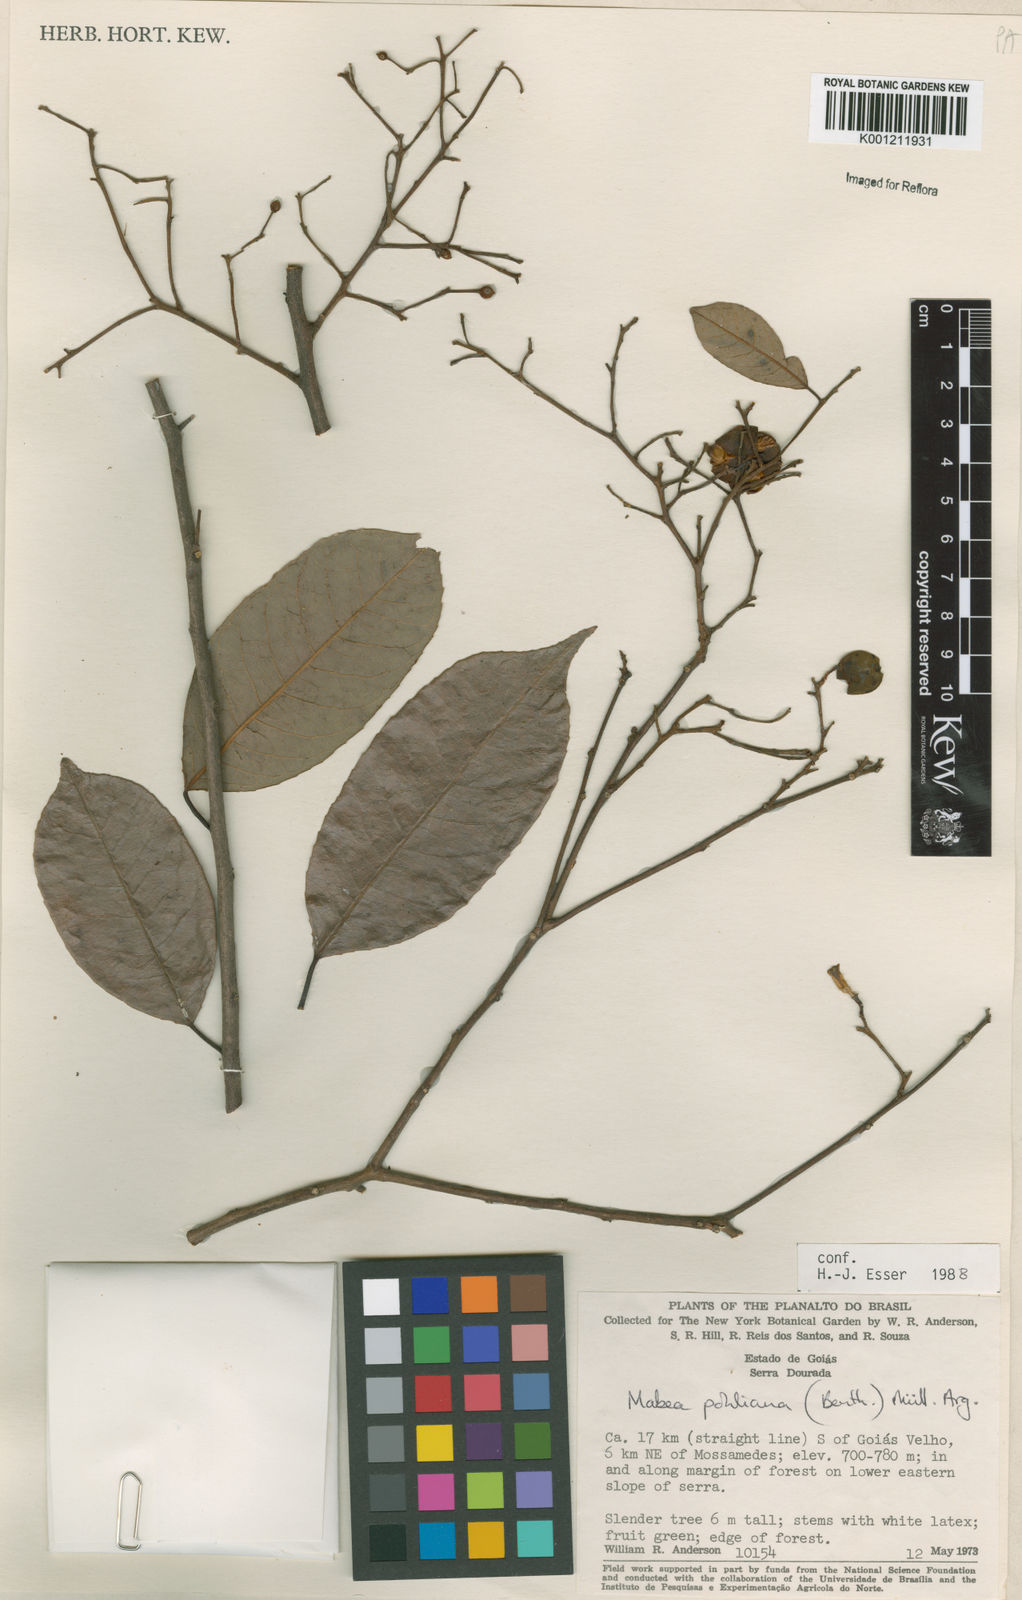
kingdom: Plantae
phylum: Tracheophyta
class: Magnoliopsida
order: Malpighiales
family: Euphorbiaceae
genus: Mabea
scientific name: Mabea
